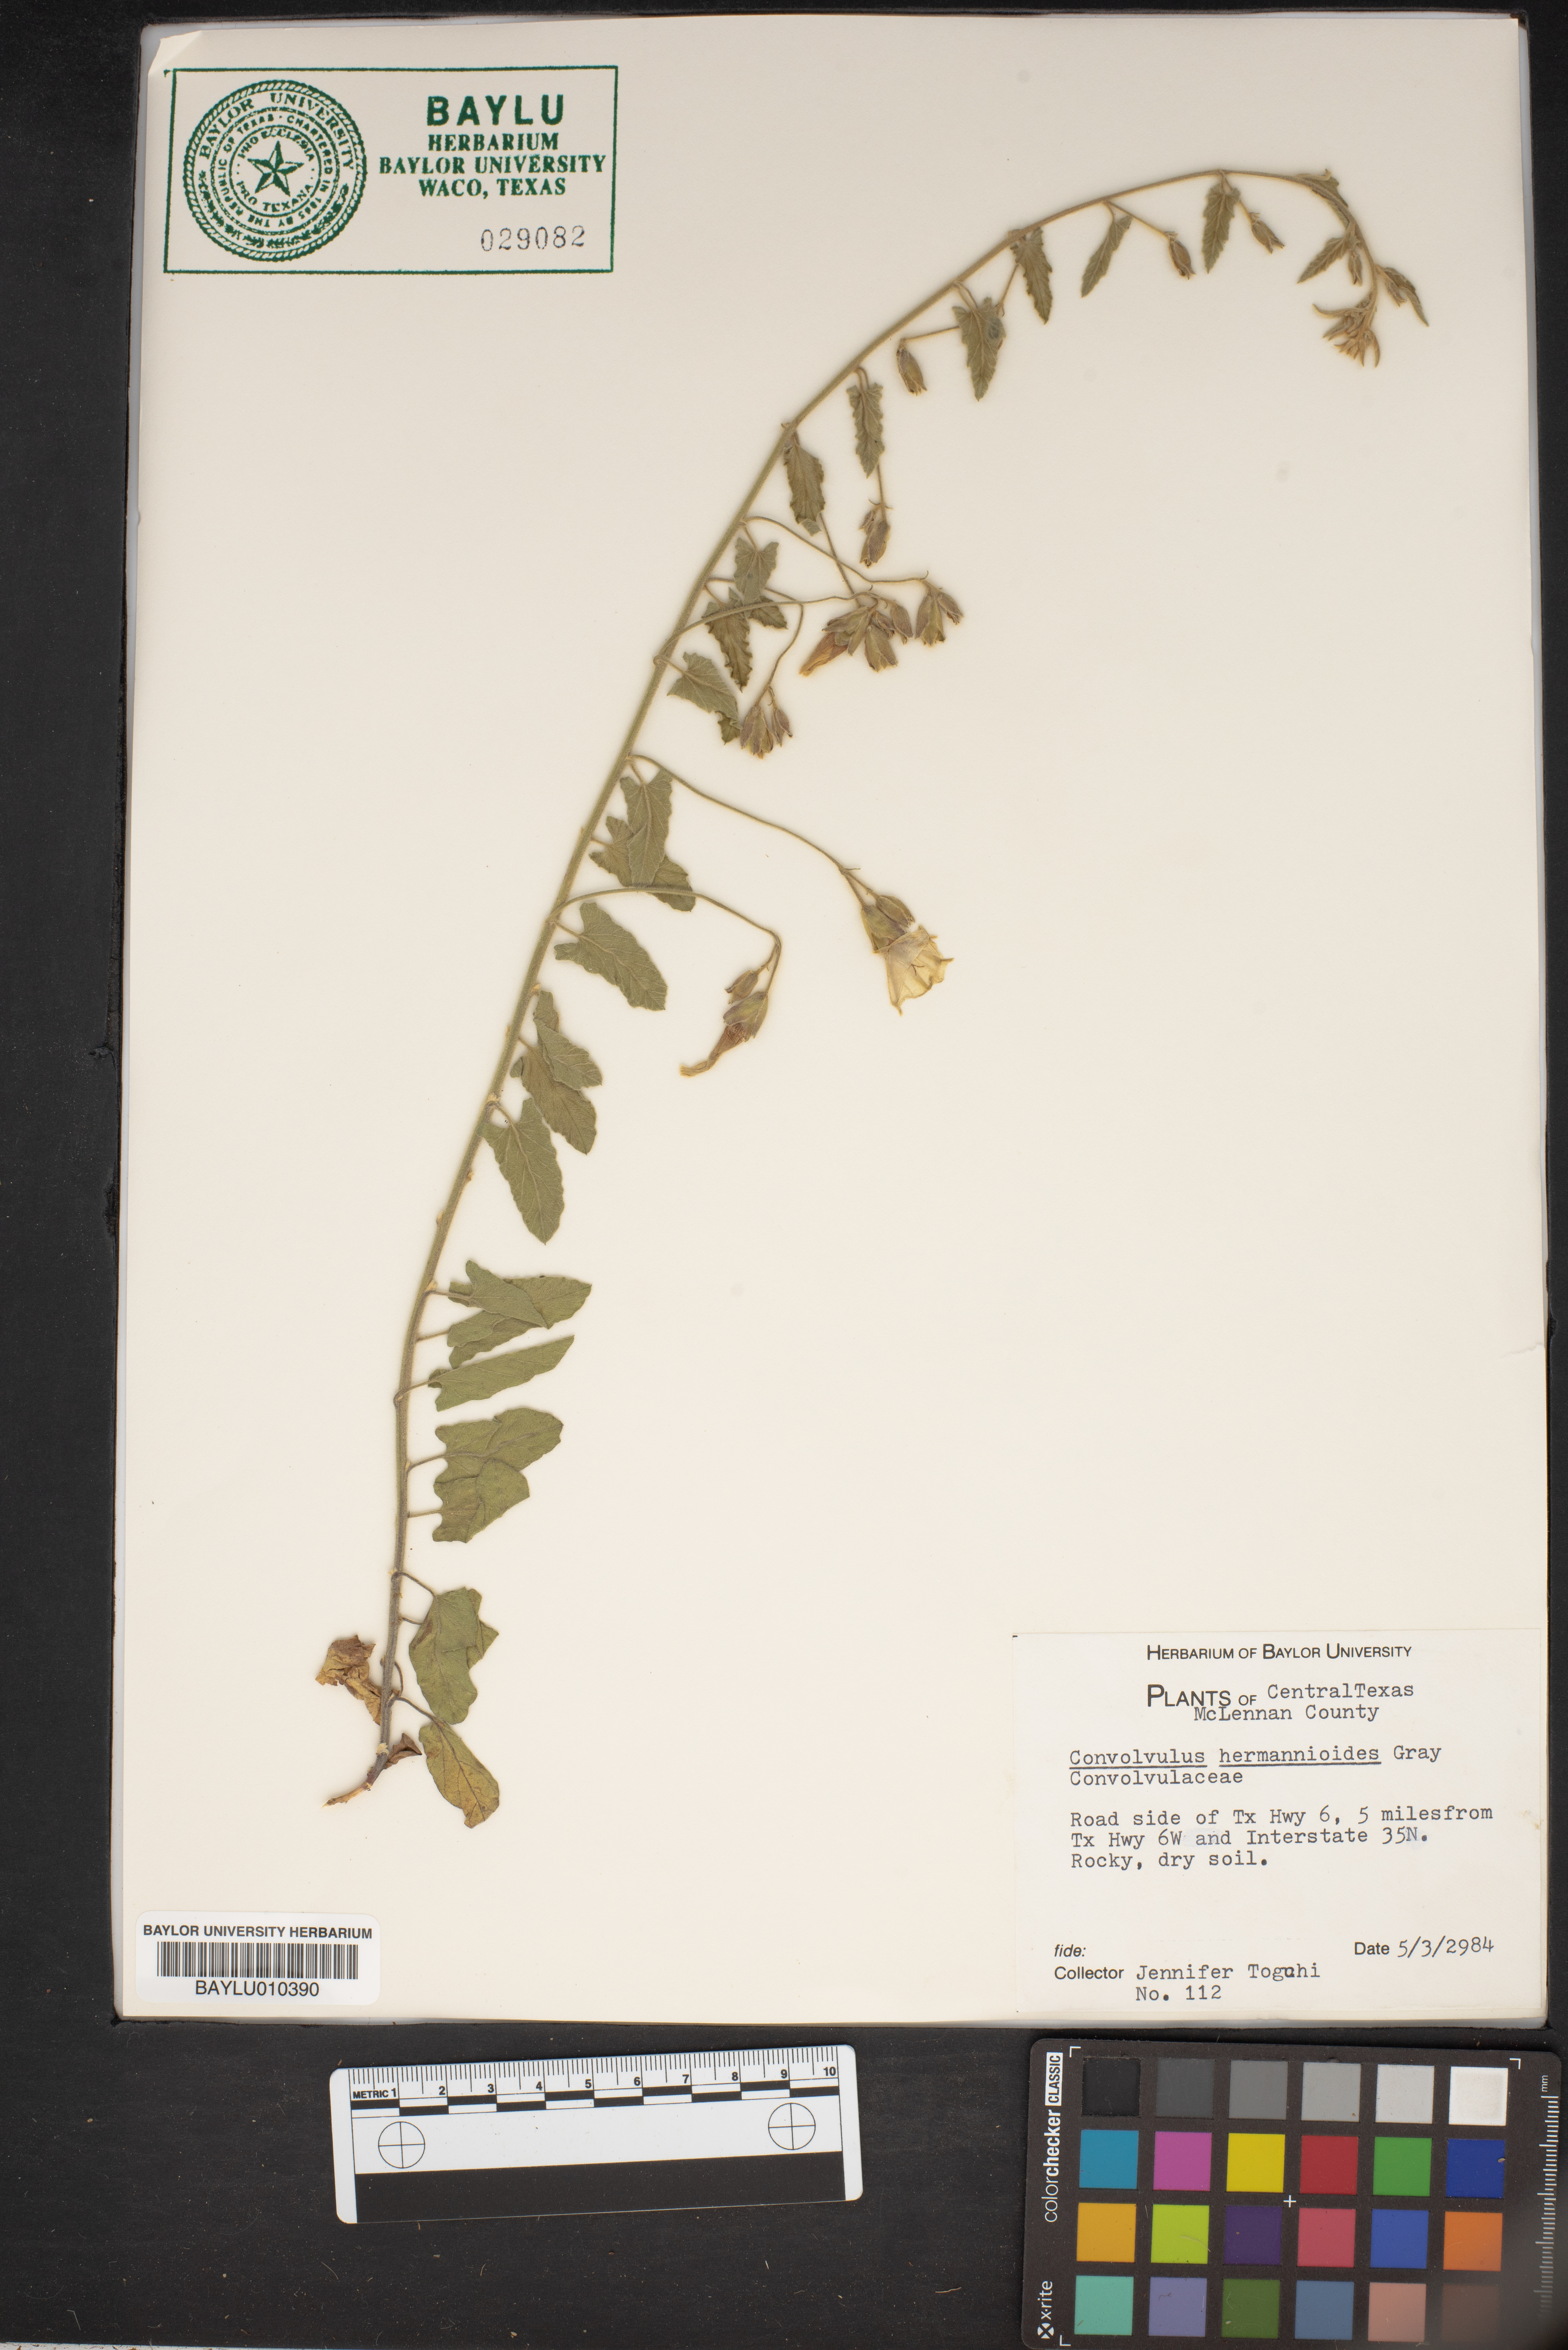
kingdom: Plantae
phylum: Tracheophyta
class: Magnoliopsida
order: Solanales
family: Convolvulaceae
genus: Convolvulus
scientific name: Convolvulus equitans
